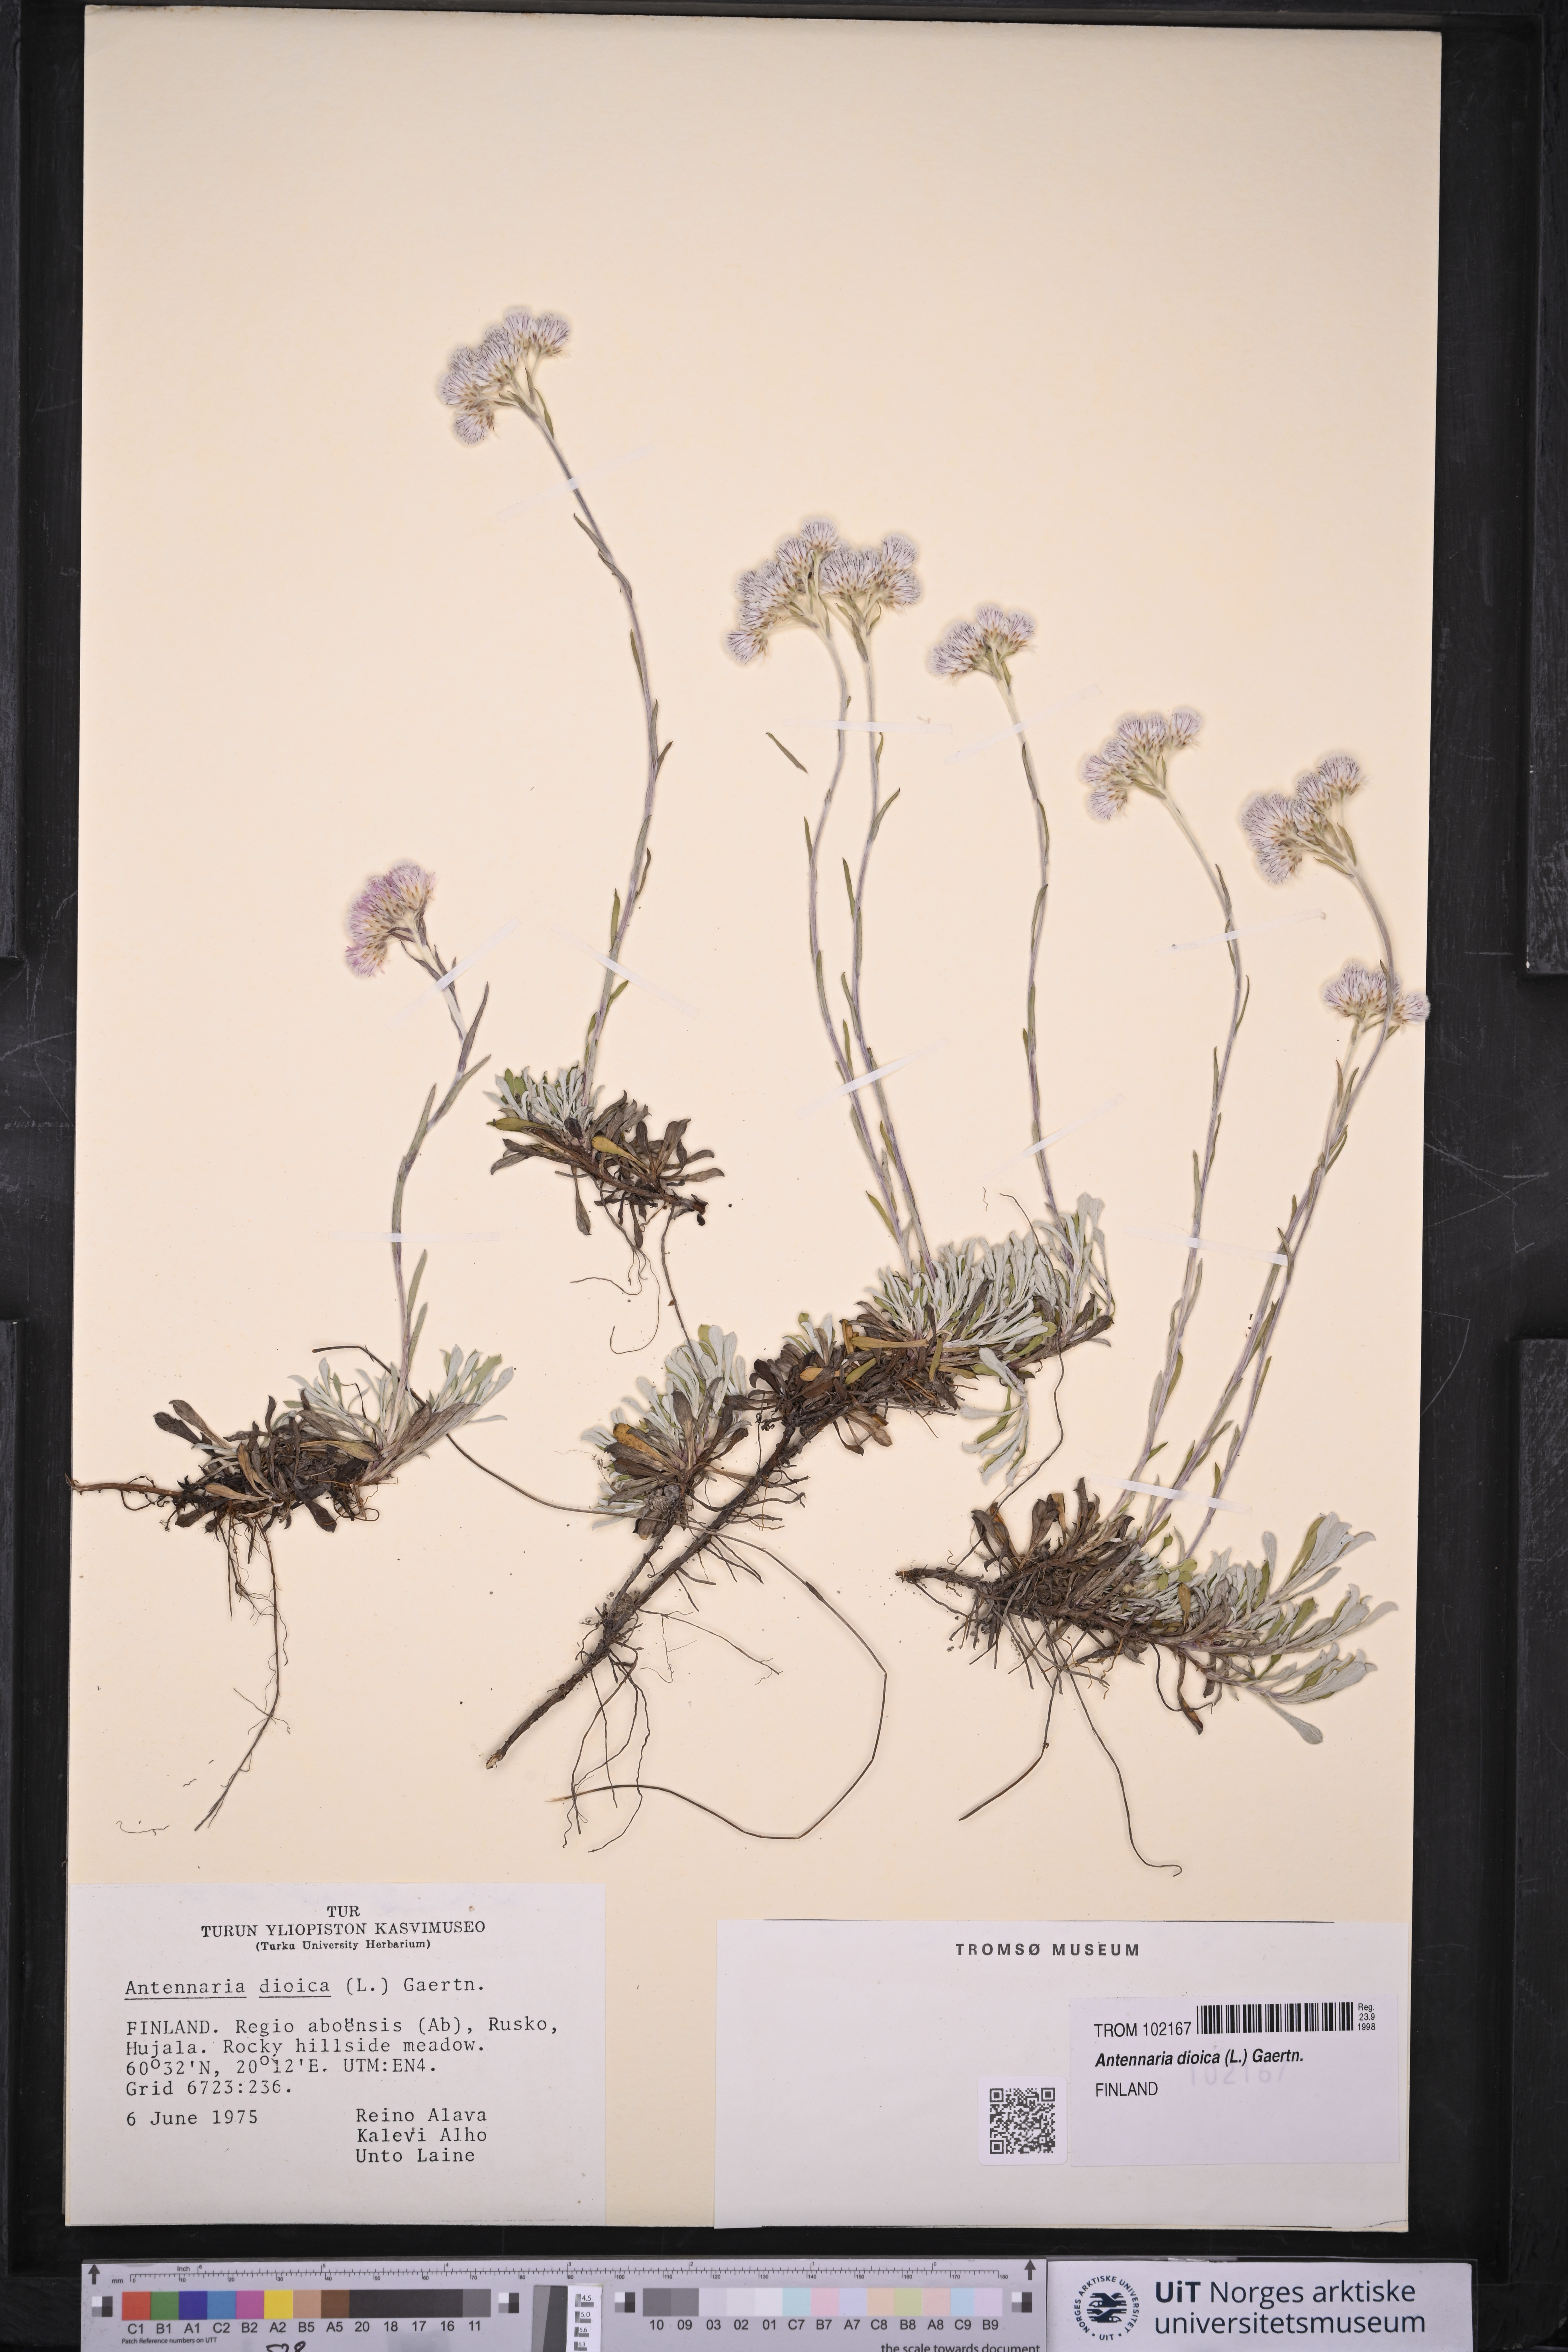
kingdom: Plantae
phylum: Tracheophyta
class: Magnoliopsida
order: Asterales
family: Asteraceae
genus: Antennaria
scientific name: Antennaria dioica
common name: Mountain everlasting
